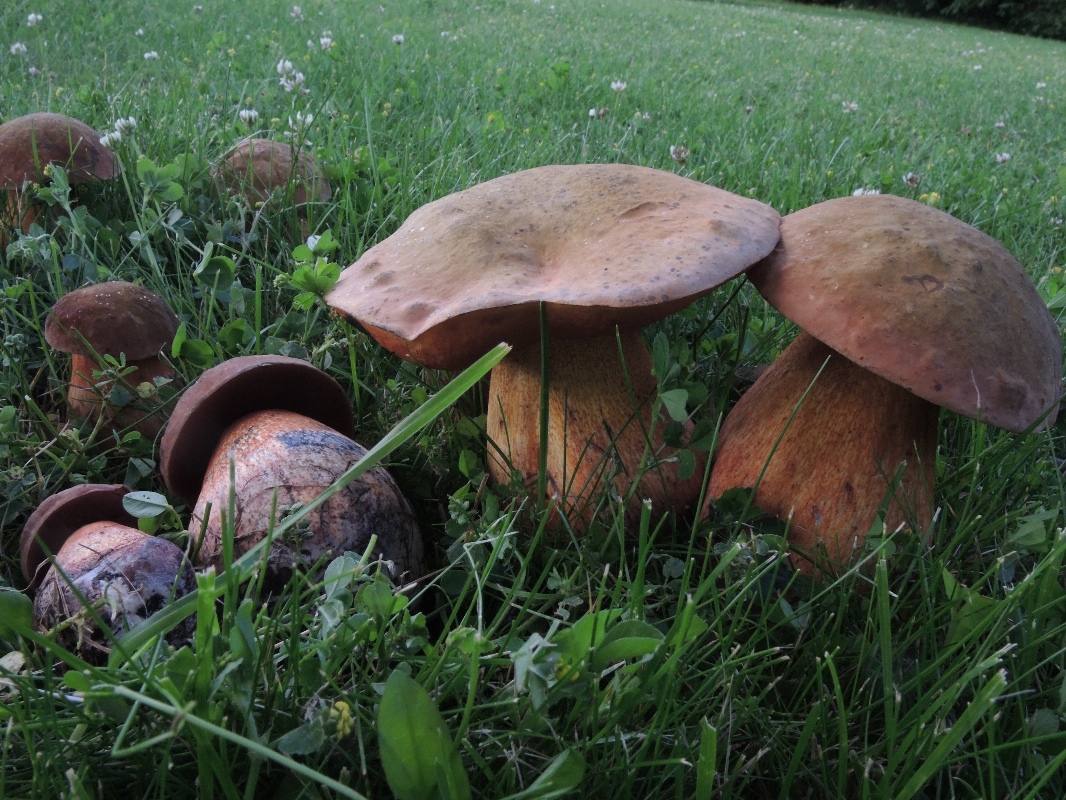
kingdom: Fungi
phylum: Basidiomycota
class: Agaricomycetes
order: Boletales
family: Boletaceae
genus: Suillellus
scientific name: Suillellus luridus
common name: netstokket indigorørhat
